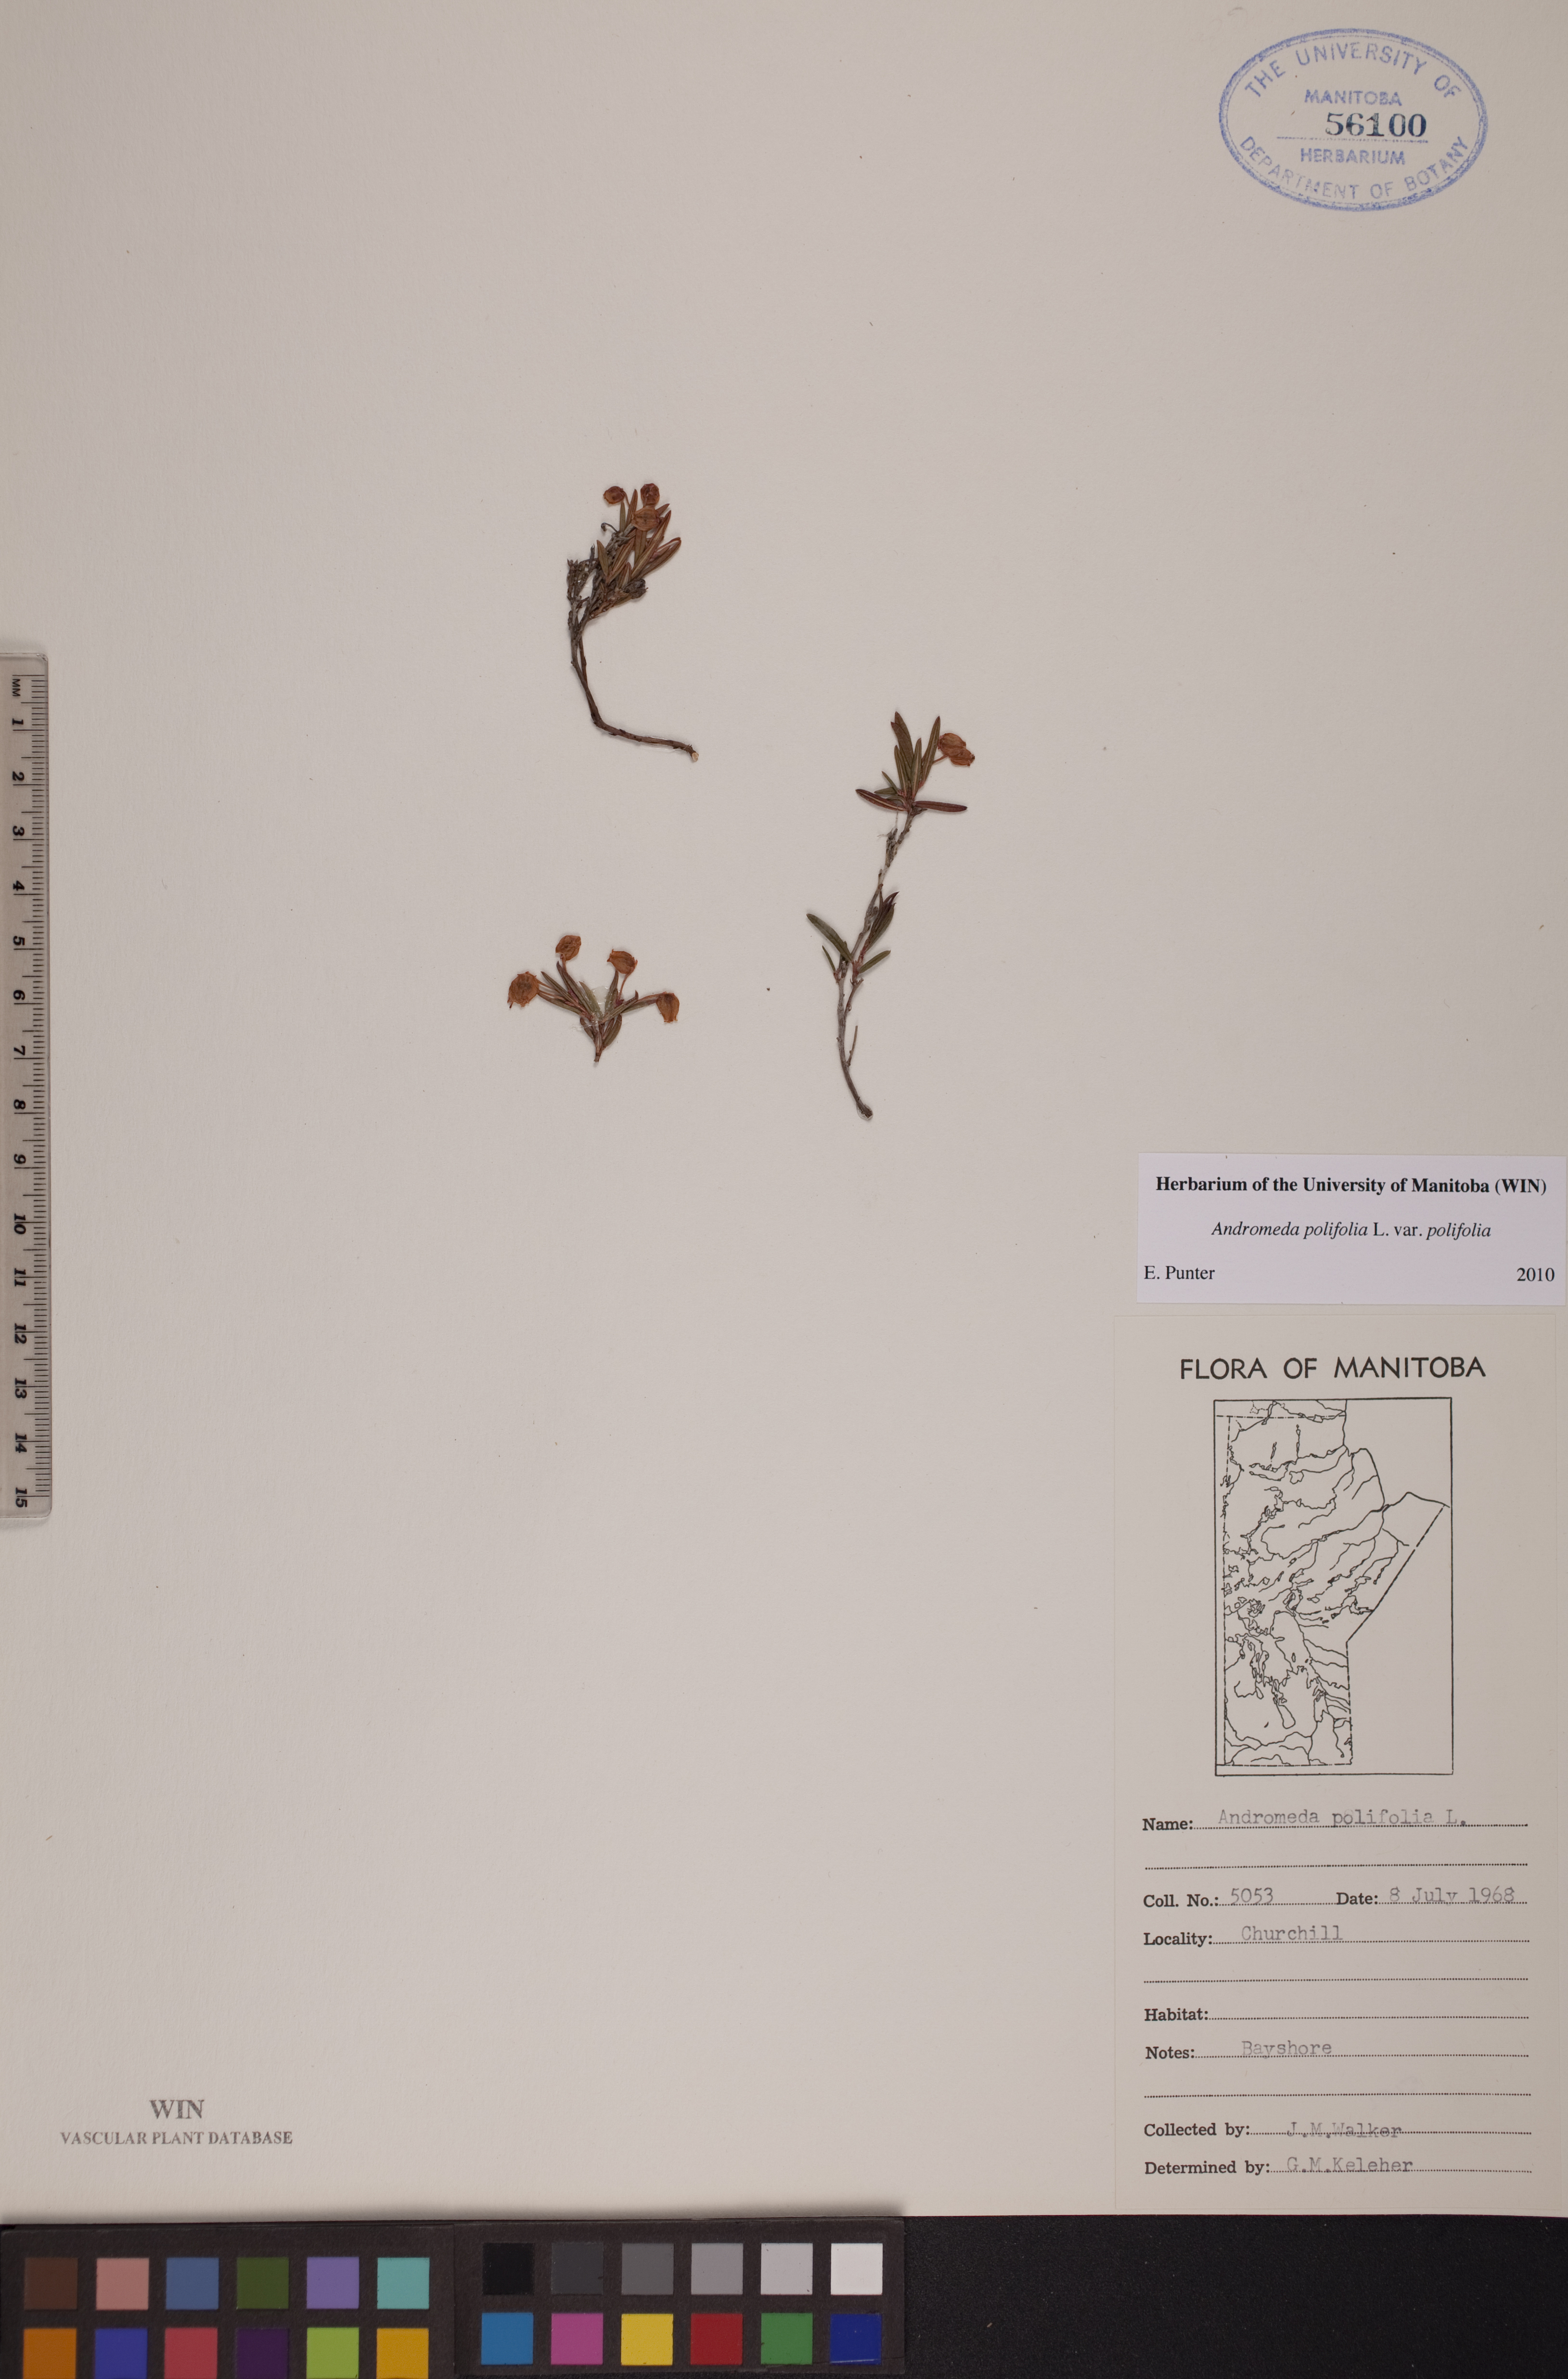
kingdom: Plantae
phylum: Tracheophyta
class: Magnoliopsida
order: Ericales
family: Ericaceae
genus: Andromeda
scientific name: Andromeda polifolia
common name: Bog-rosemary
